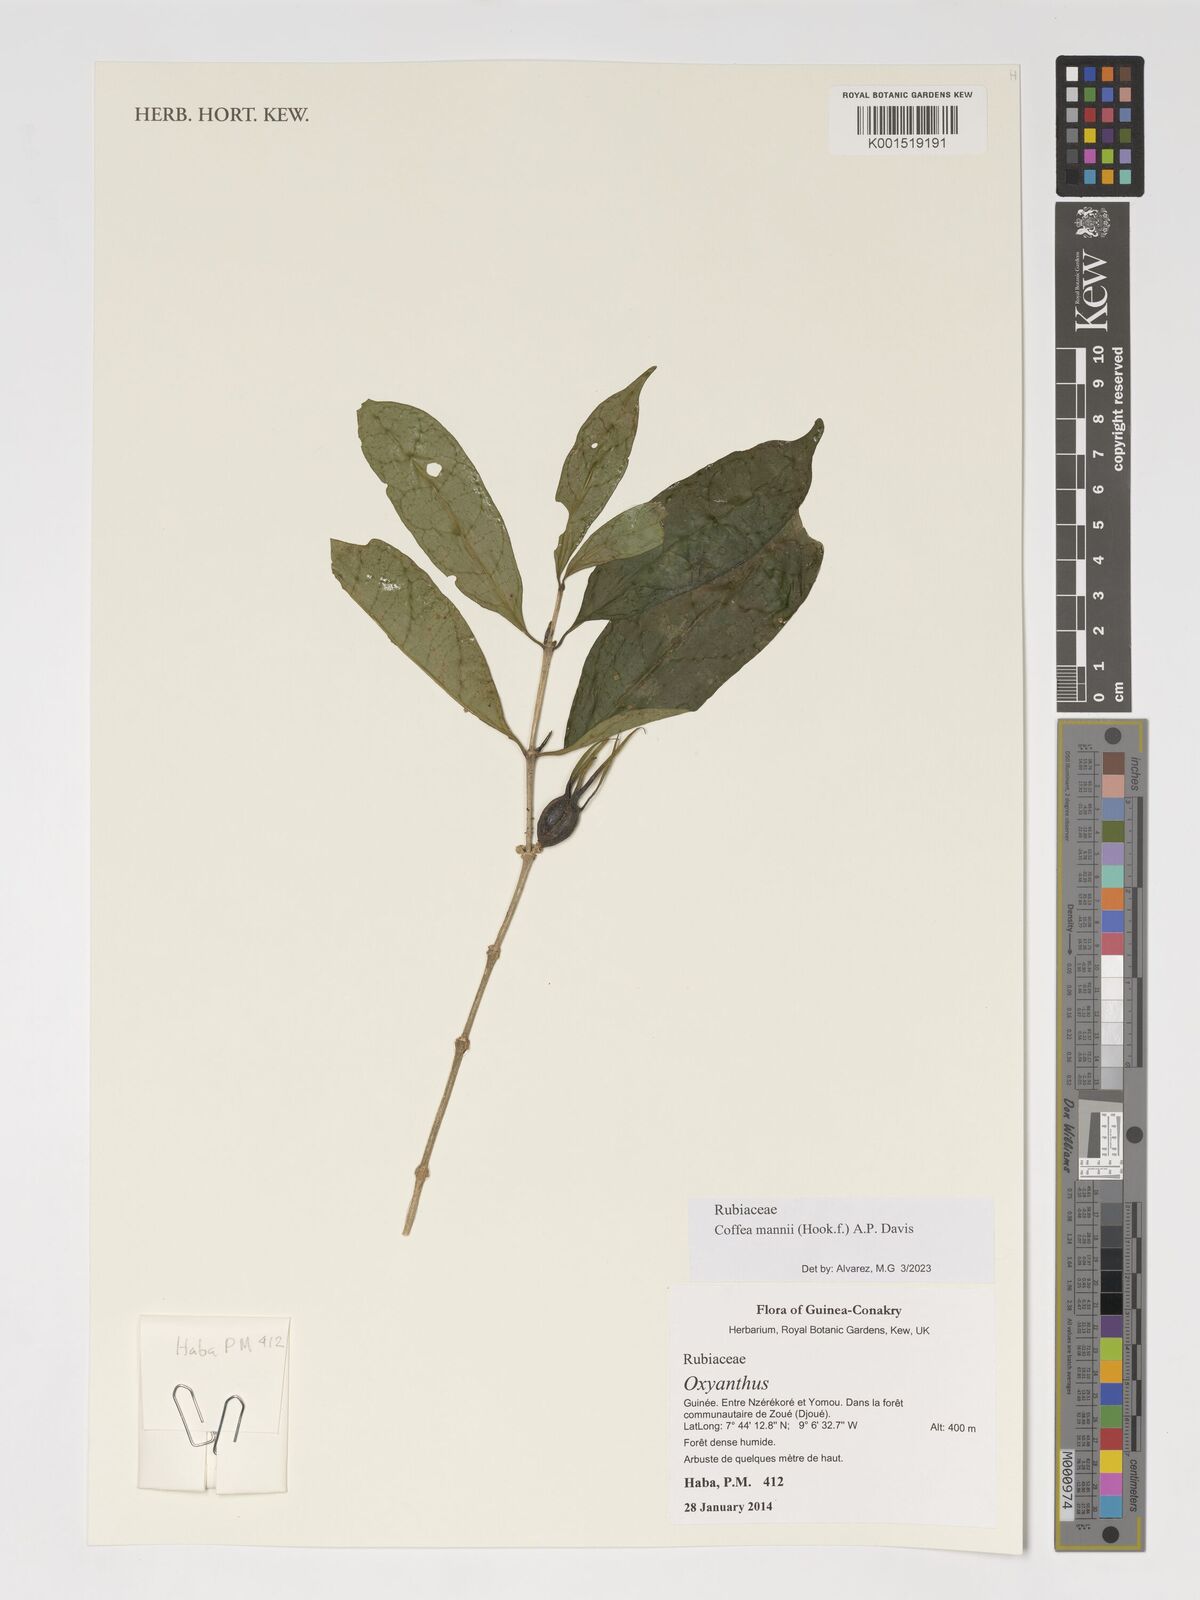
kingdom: Plantae
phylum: Tracheophyta
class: Magnoliopsida
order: Gentianales
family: Rubiaceae
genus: Coffea
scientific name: Coffea mannii
